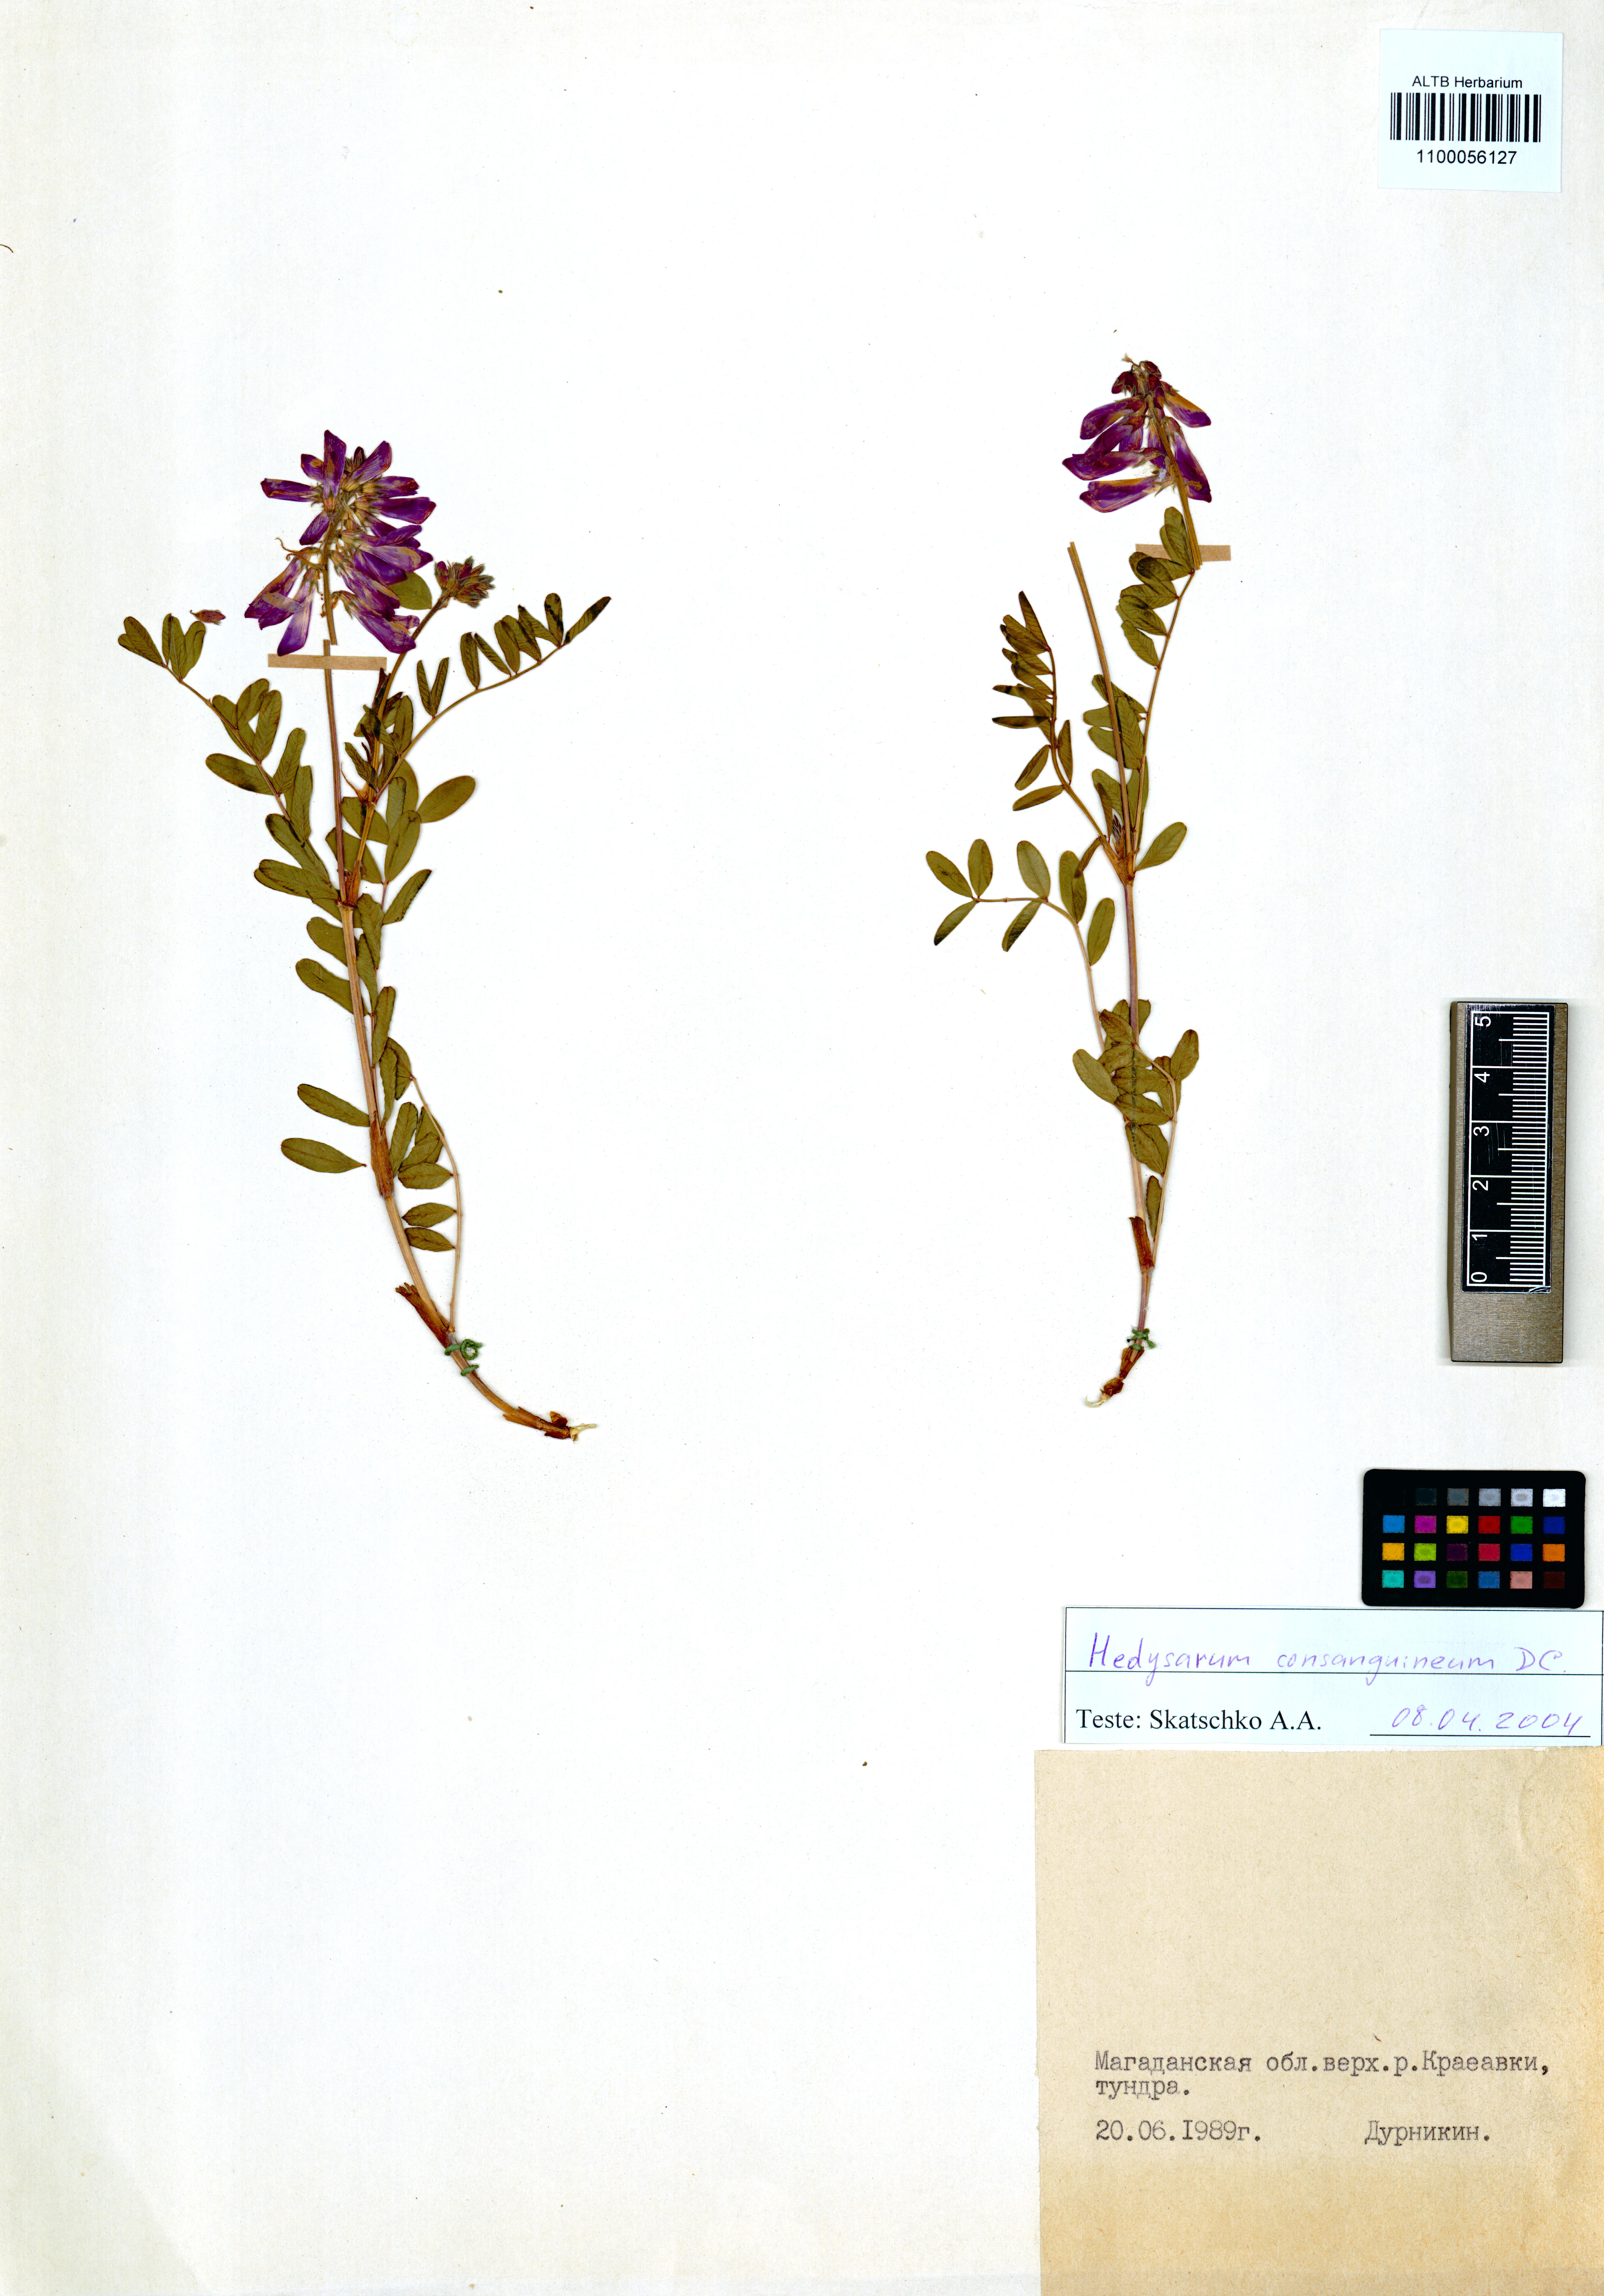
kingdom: Plantae
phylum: Tracheophyta
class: Magnoliopsida
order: Fabales
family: Fabaceae
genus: Hedysarum
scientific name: Hedysarum consanguineum
